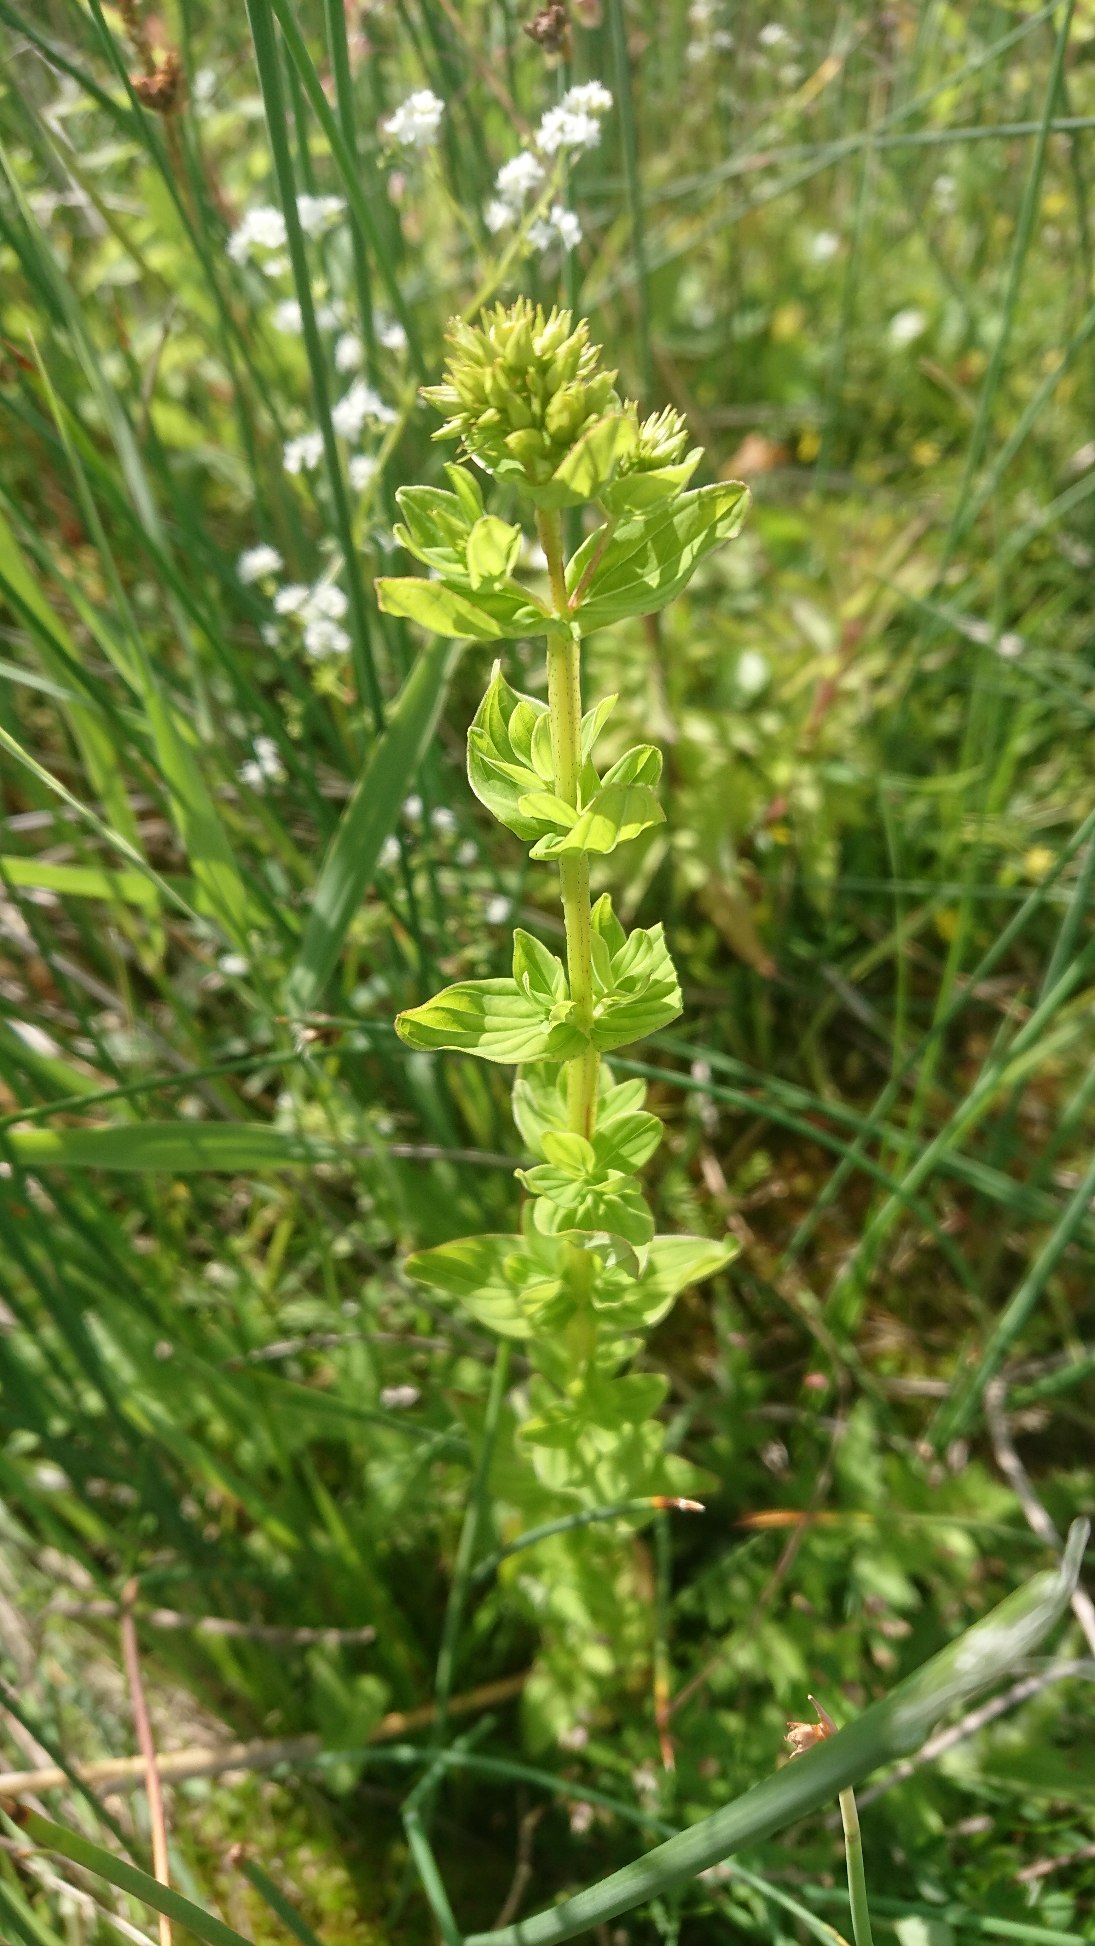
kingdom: Plantae
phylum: Tracheophyta
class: Magnoliopsida
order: Malpighiales
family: Hypericaceae
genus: Hypericum
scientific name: Hypericum tetrapterum
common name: Vinget perikon
